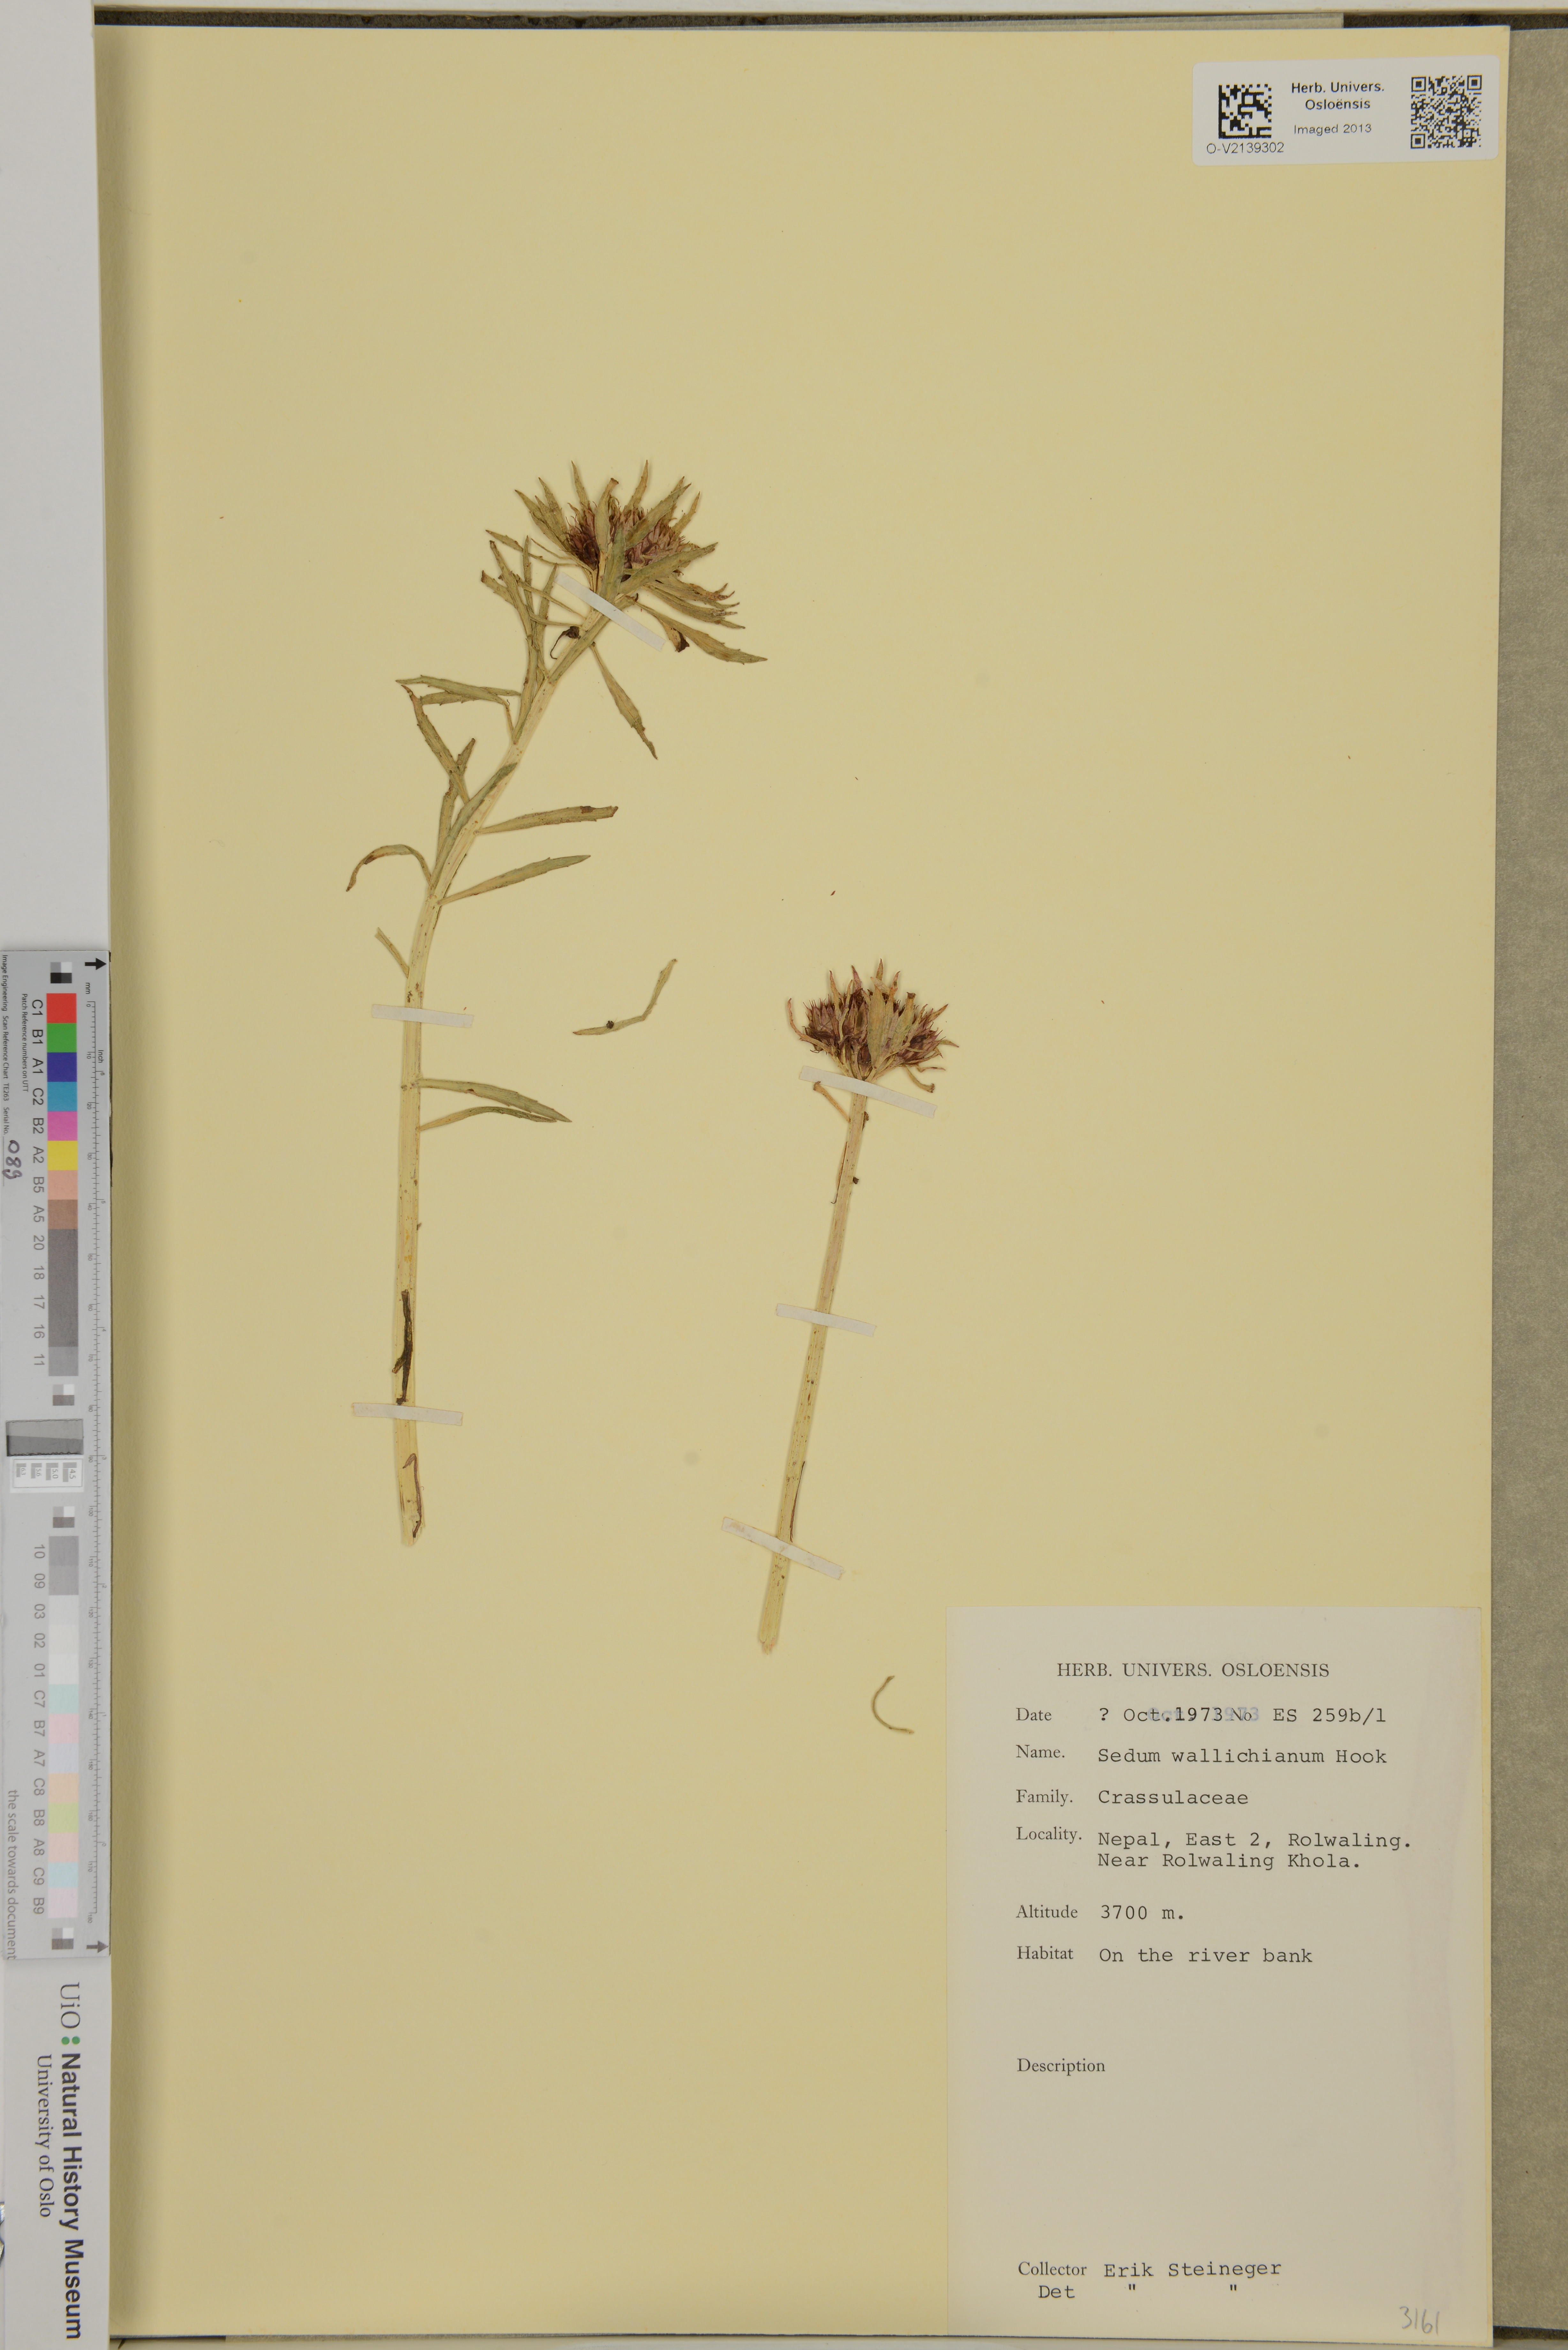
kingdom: Plantae
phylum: Tracheophyta
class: Magnoliopsida
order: Saxifragales
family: Crassulaceae
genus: Rhodiola
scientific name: Rhodiola wallichiana
